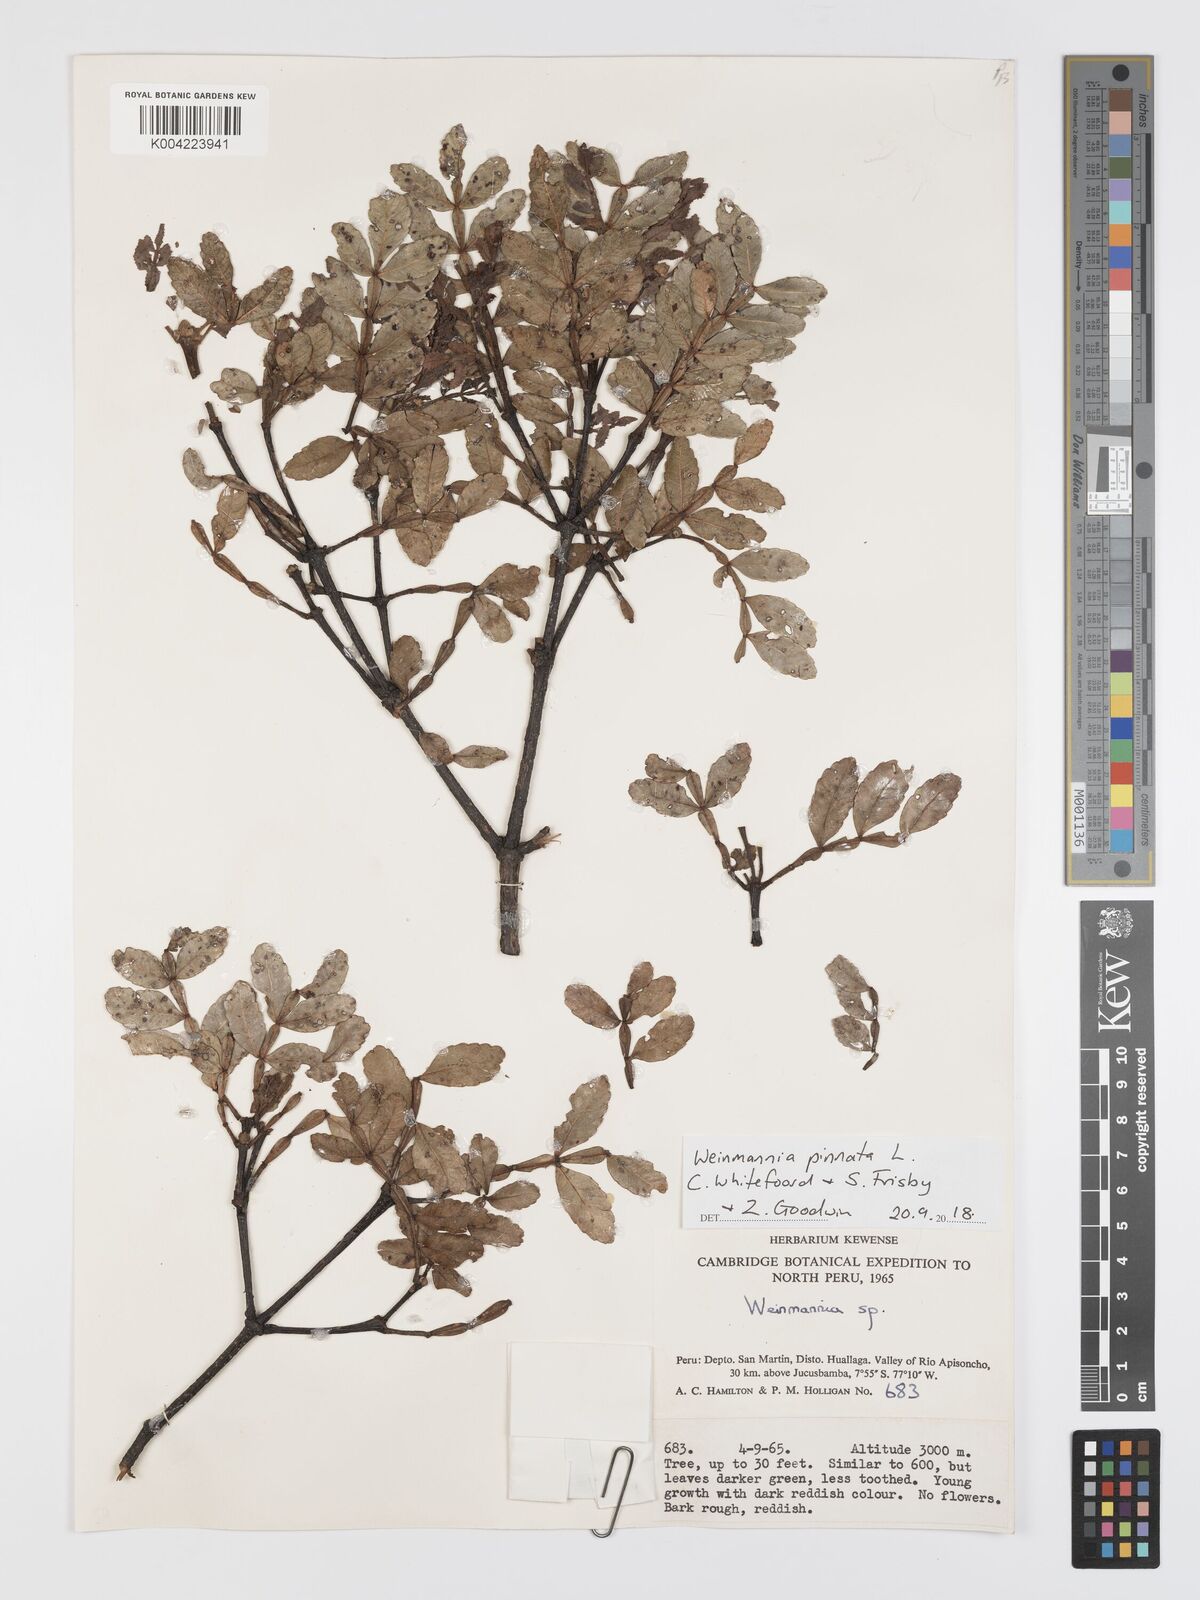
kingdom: Plantae
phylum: Tracheophyta
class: Magnoliopsida
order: Oxalidales
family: Cunoniaceae
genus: Weinmannia
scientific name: Weinmannia pinnata
